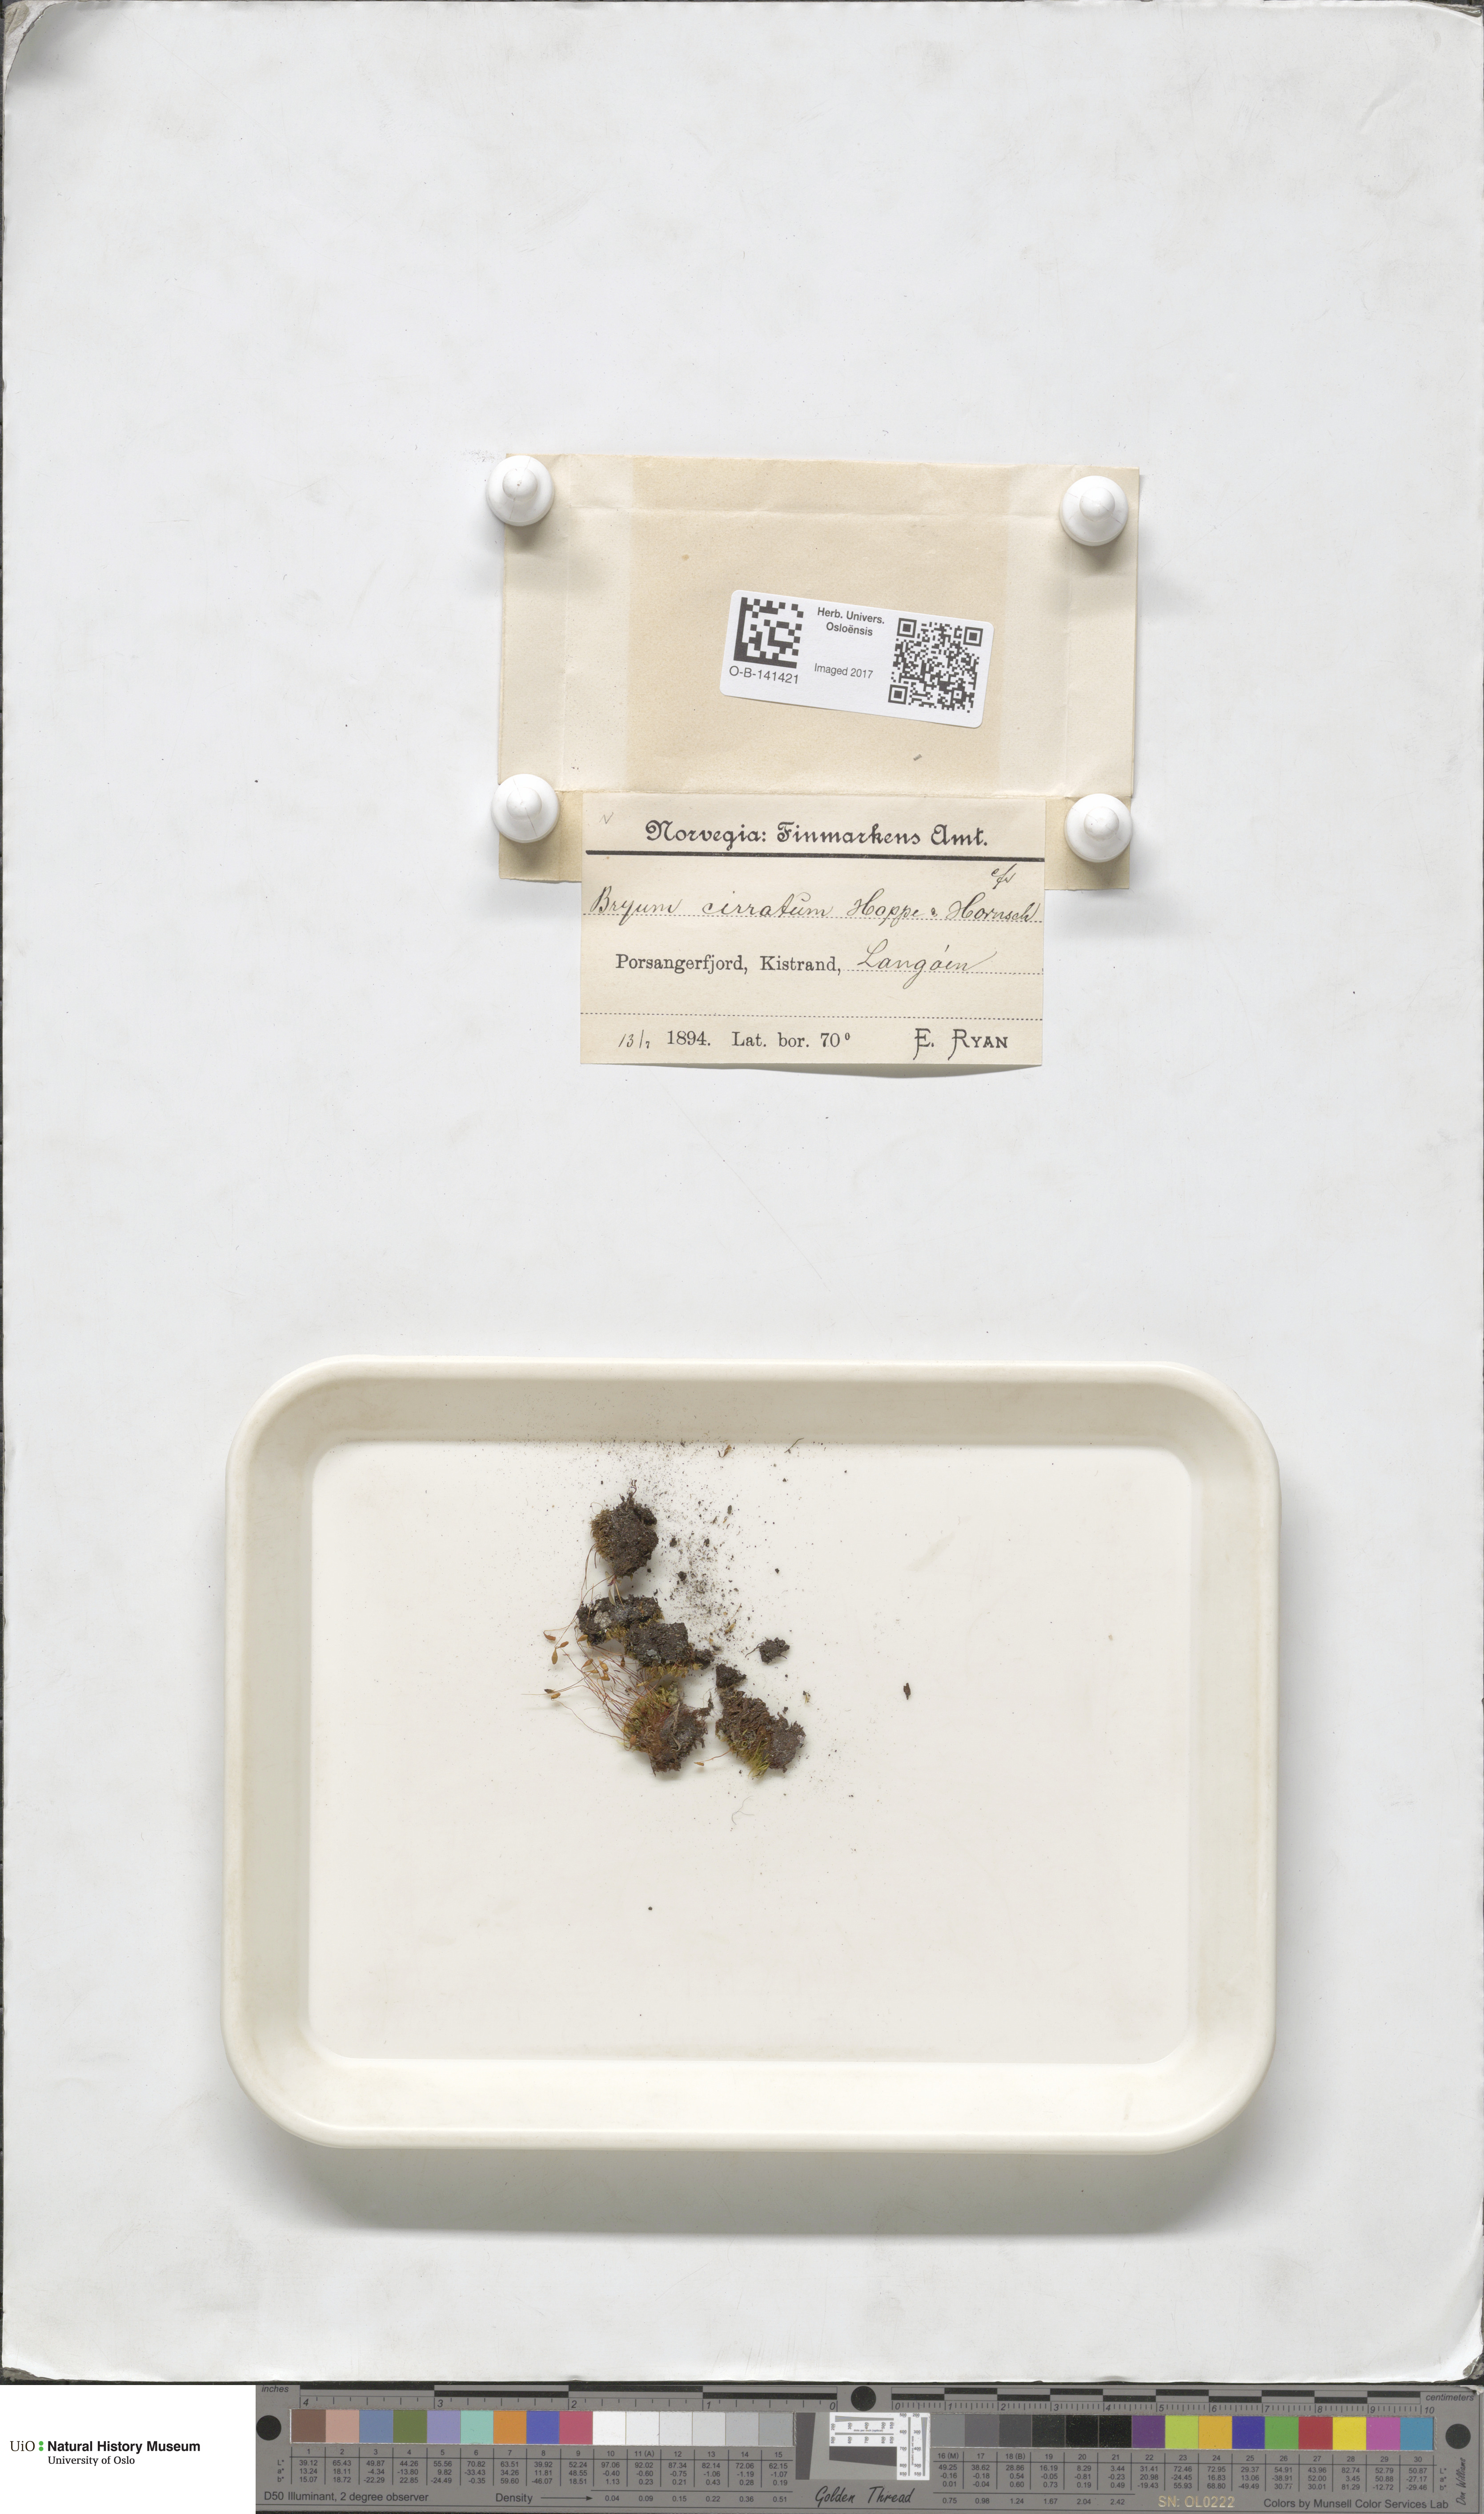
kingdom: Plantae
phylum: Bryophyta
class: Bryopsida
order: Bryales
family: Bryaceae
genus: Ptychostomum
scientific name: Ptychostomum pallescens
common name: Tall-clustered thread-moss
